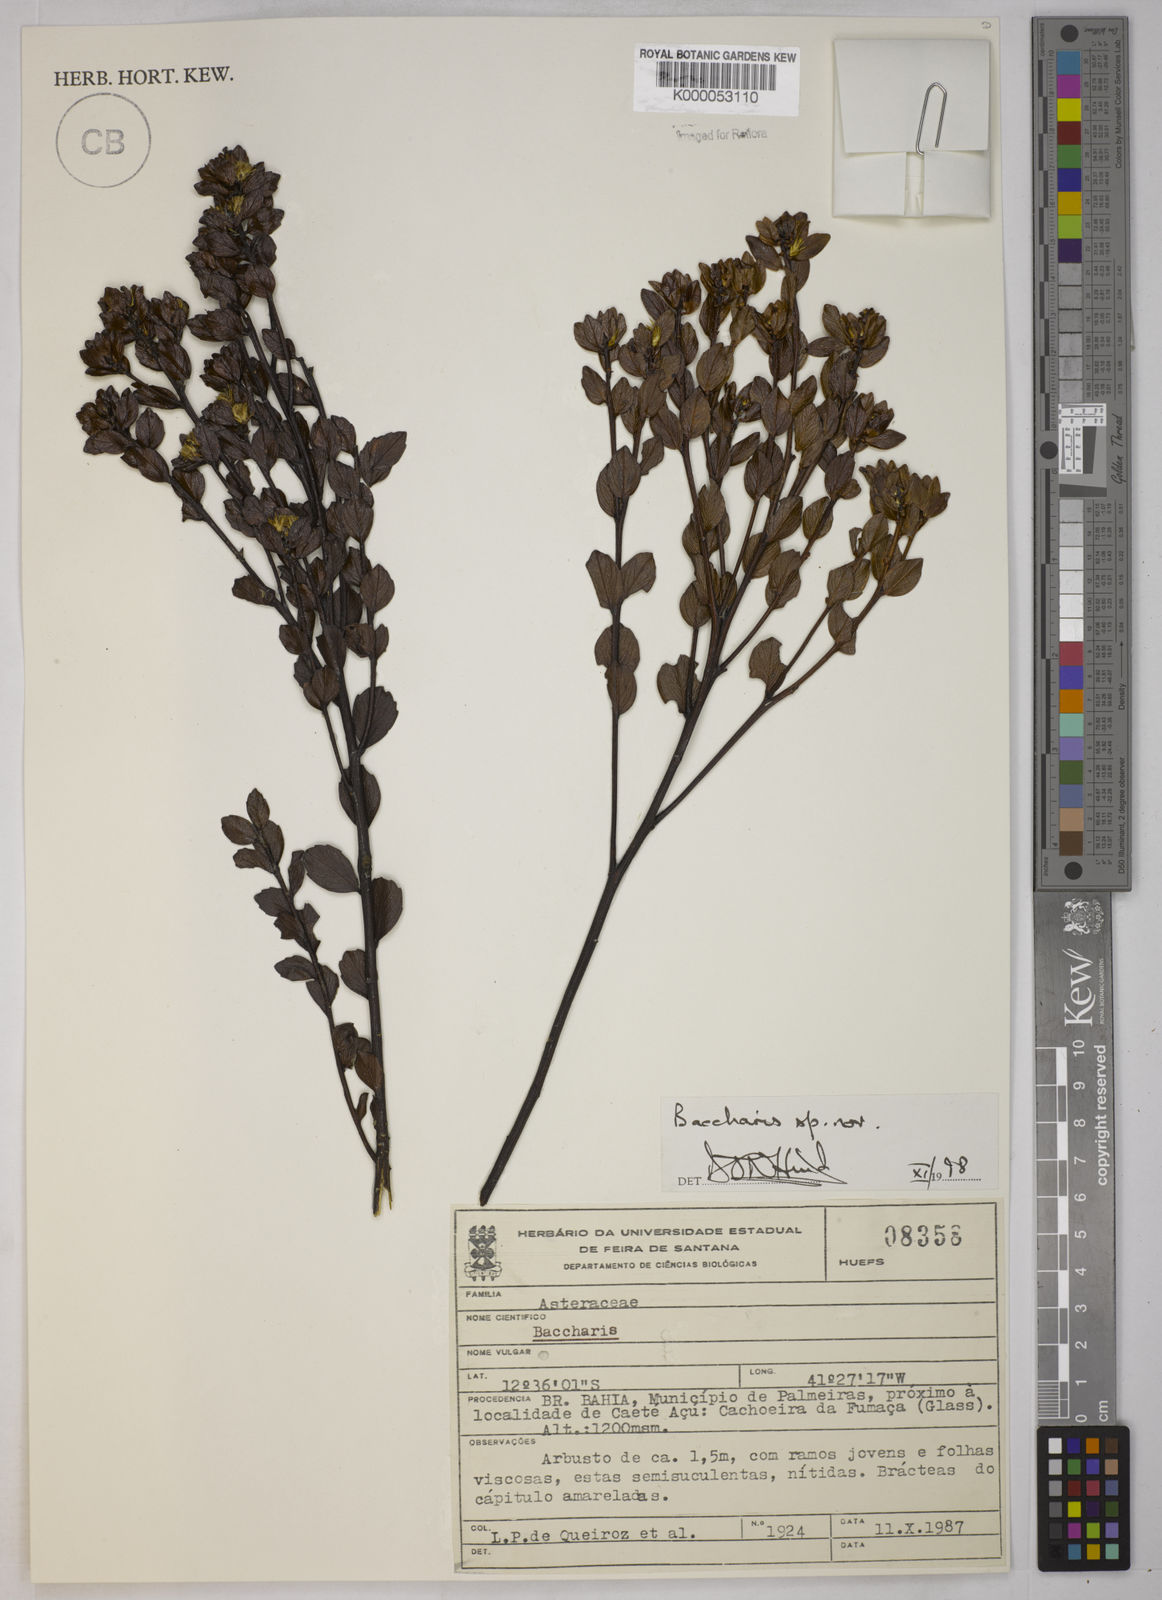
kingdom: Plantae
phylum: Tracheophyta
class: Magnoliopsida
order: Asterales
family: Asteraceae
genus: Baccharis
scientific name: Baccharis
